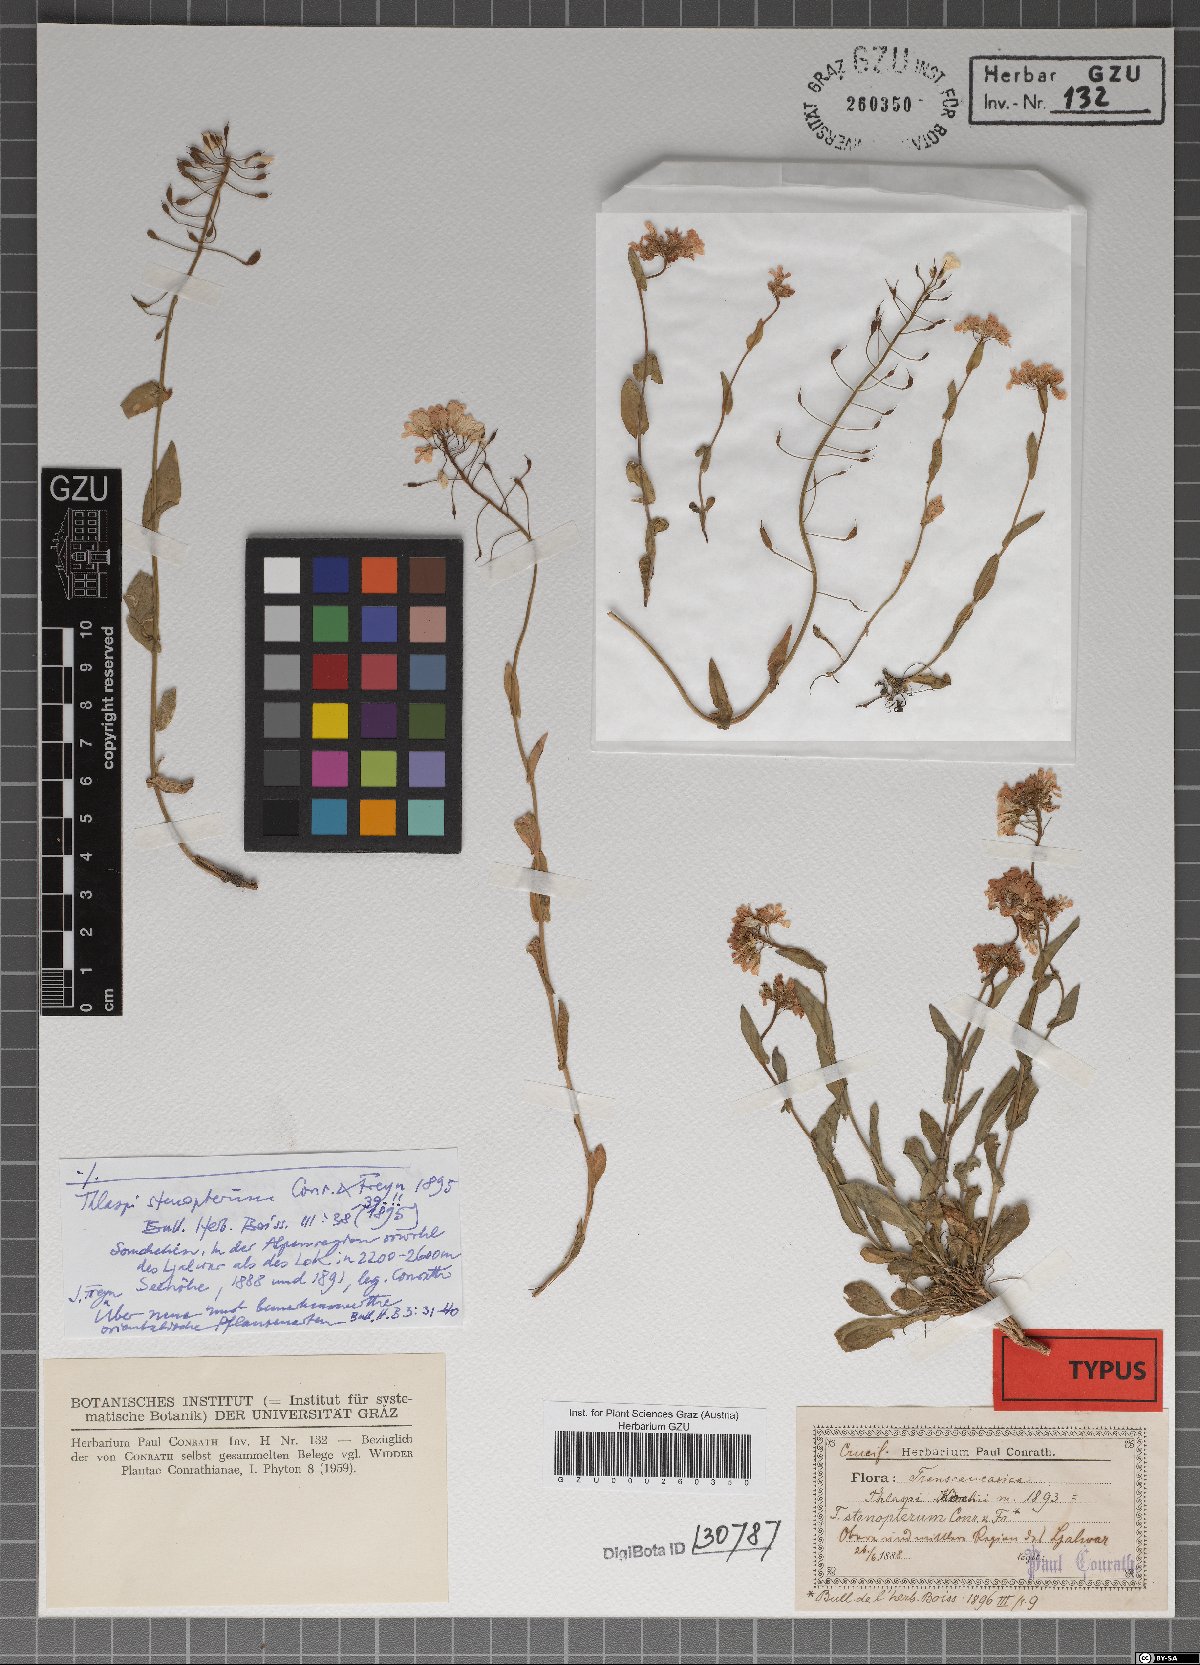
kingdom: Plantae
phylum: Tracheophyta
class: Magnoliopsida
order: Brassicales
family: Brassicaceae
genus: Noccaea
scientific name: Noccaea annua
